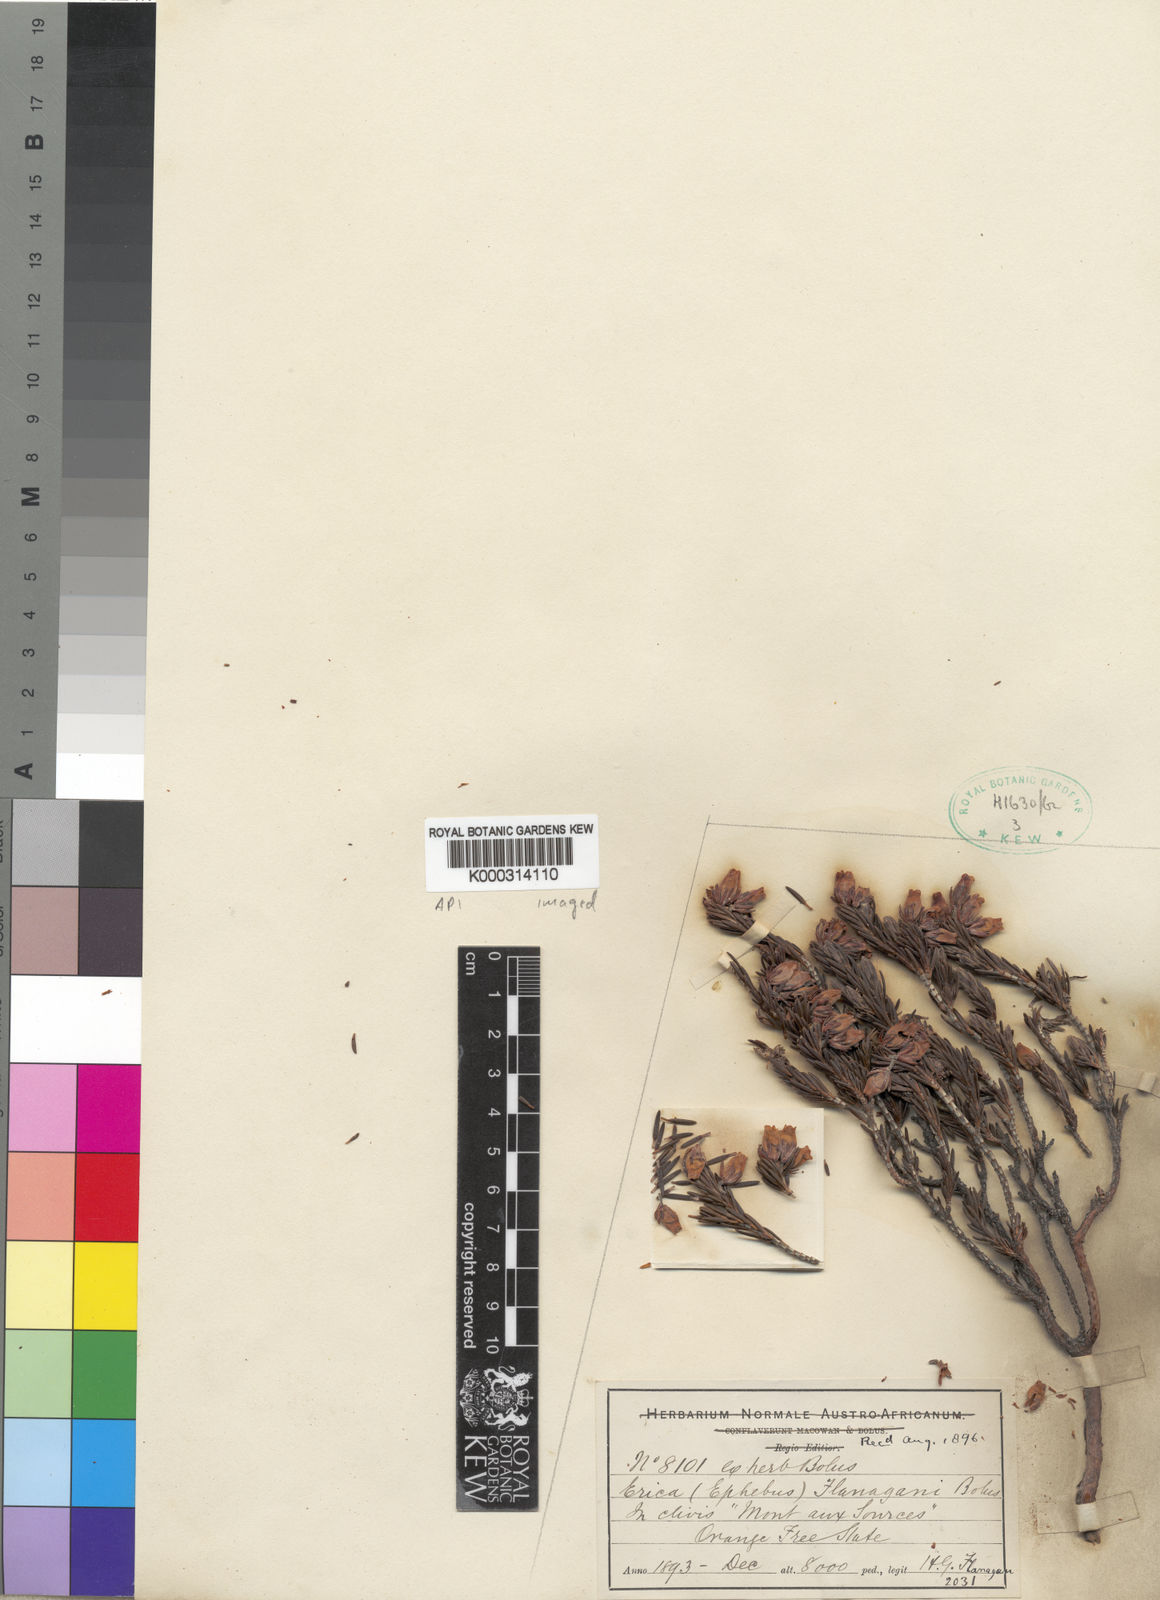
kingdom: Plantae
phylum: Tracheophyta
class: Magnoliopsida
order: Ericales
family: Ericaceae
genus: Erica
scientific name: Erica flanaganii
